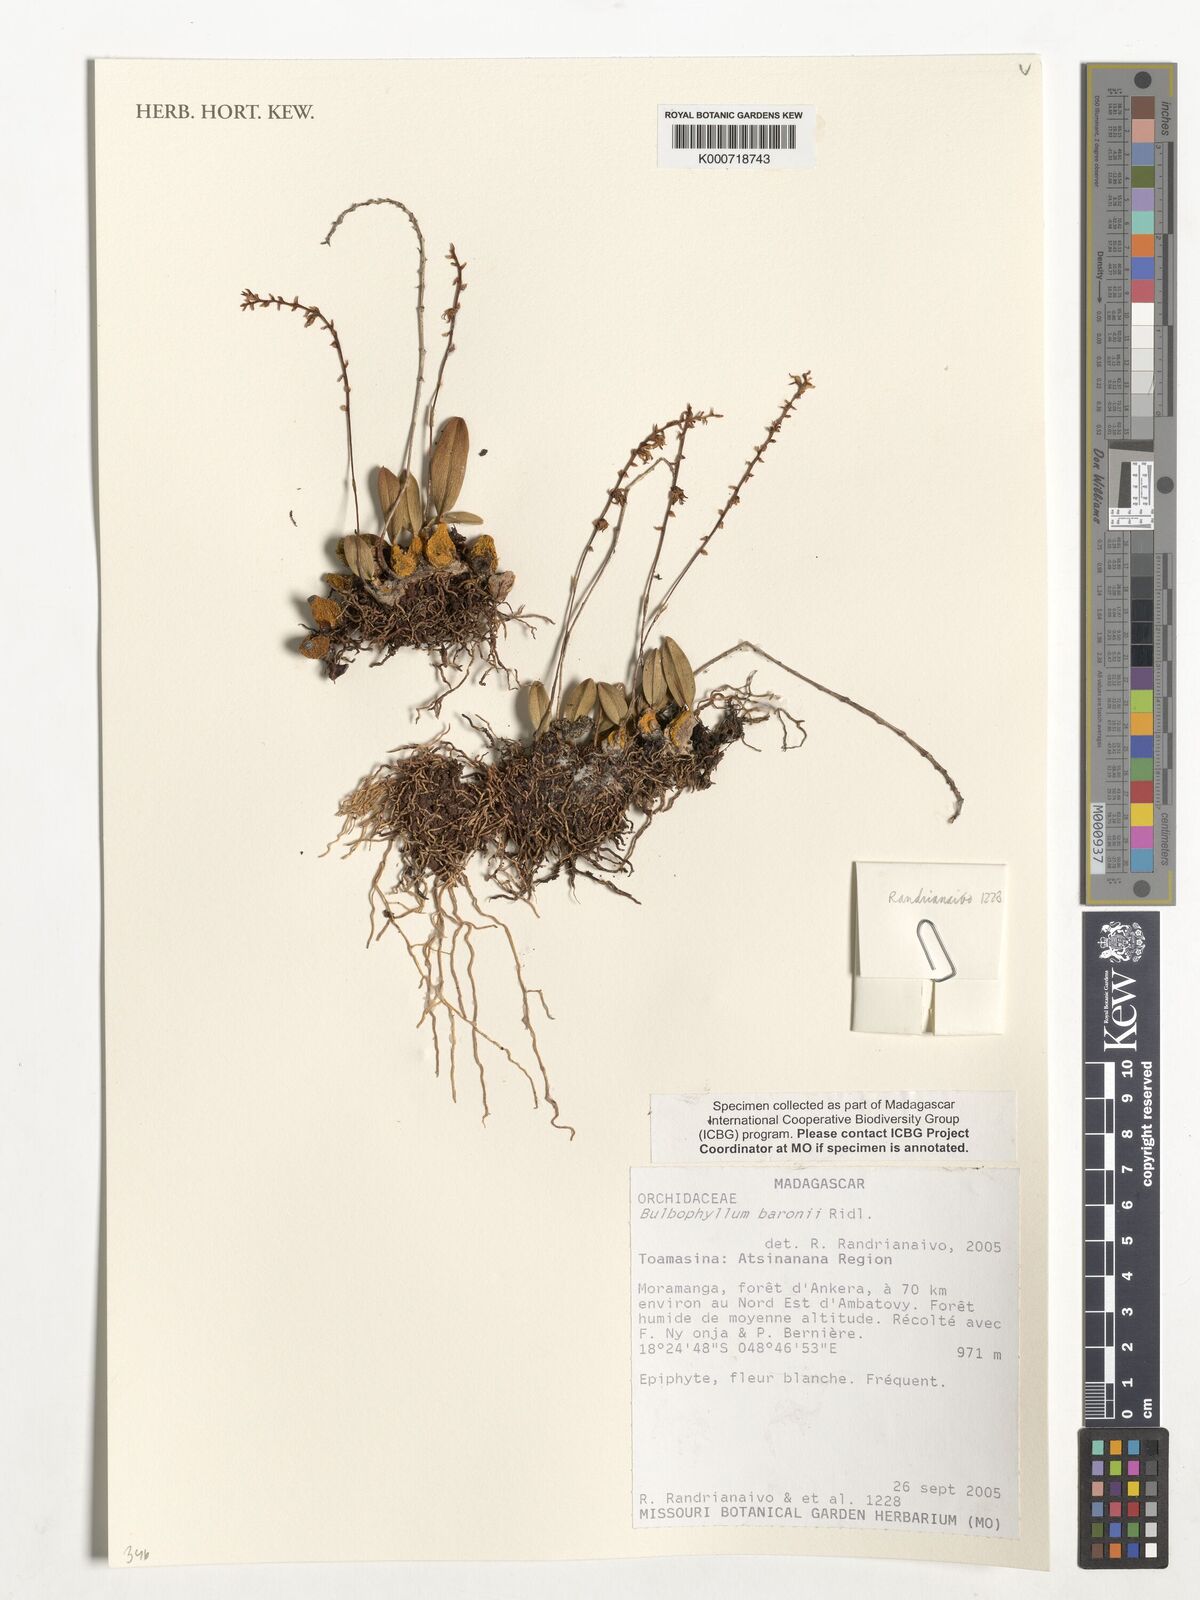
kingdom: Plantae
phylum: Tracheophyta
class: Liliopsida
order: Asparagales
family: Orchidaceae
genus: Bulbophyllum
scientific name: Bulbophyllum baronii
